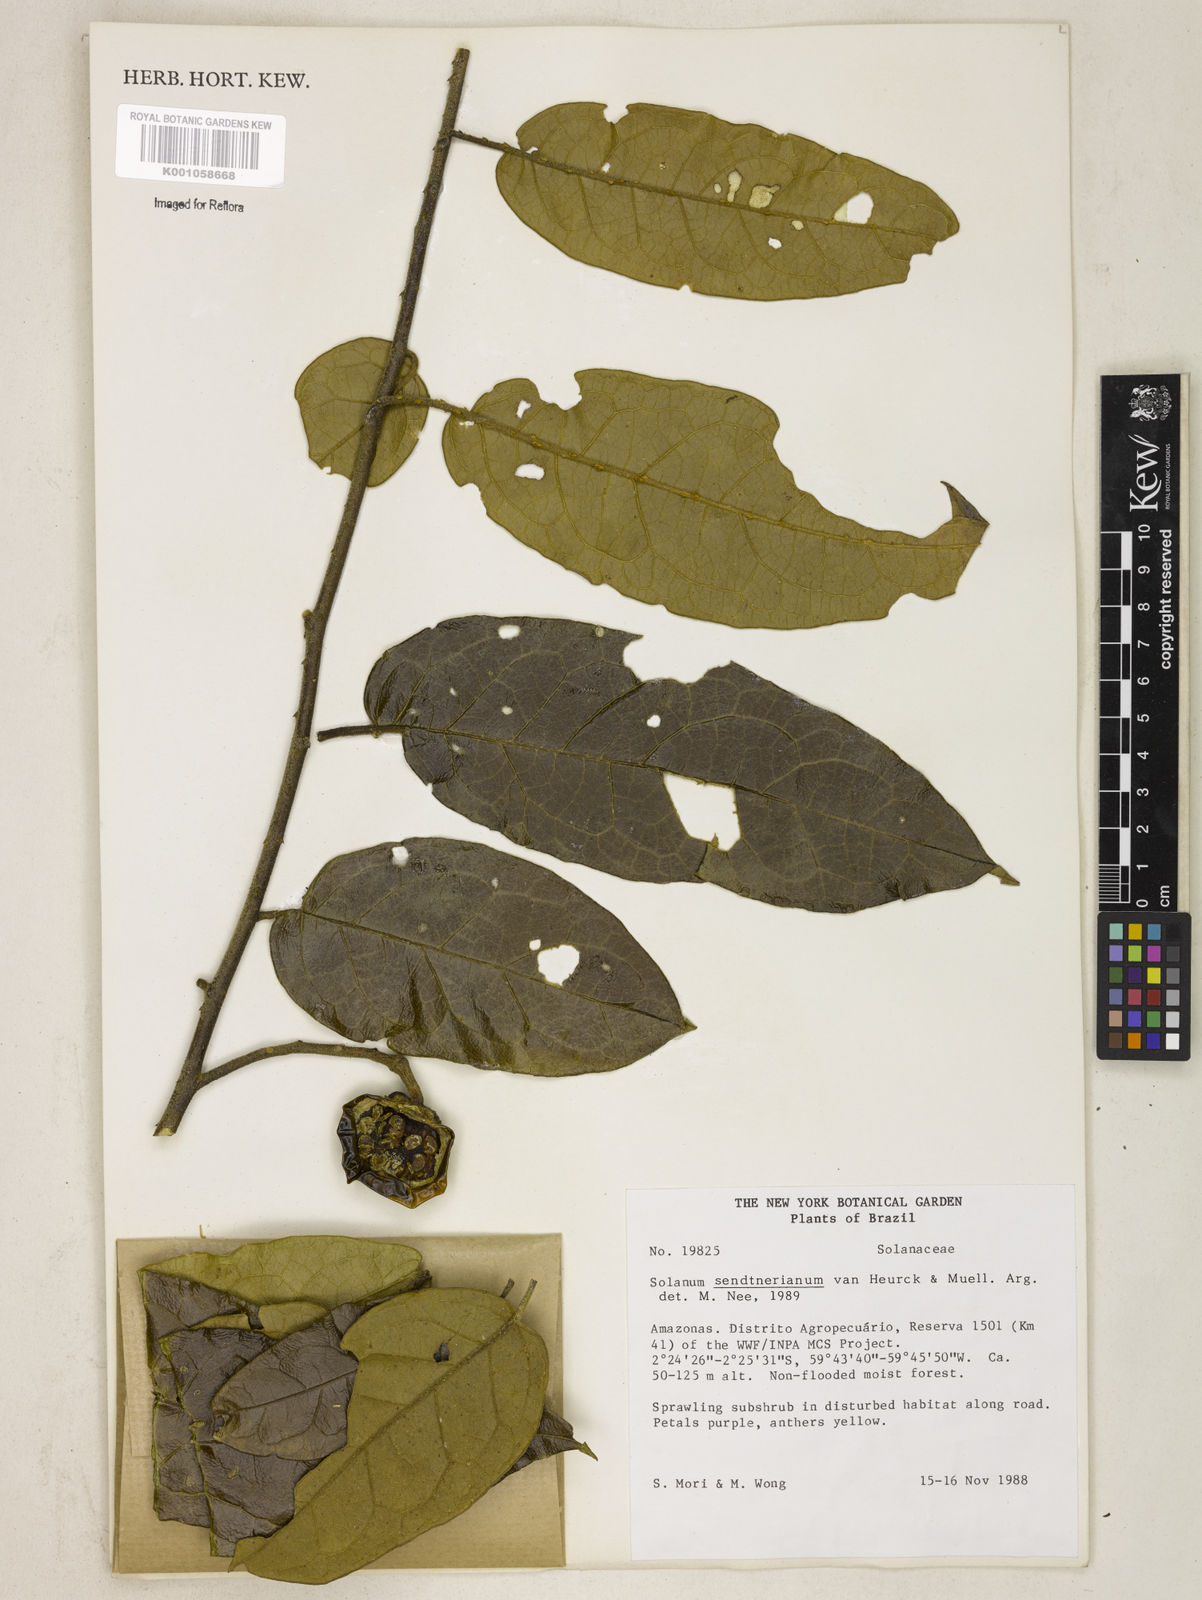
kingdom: Plantae
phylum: Tracheophyta
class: Magnoliopsida
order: Solanales
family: Solanaceae
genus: Solanum
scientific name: Solanum
